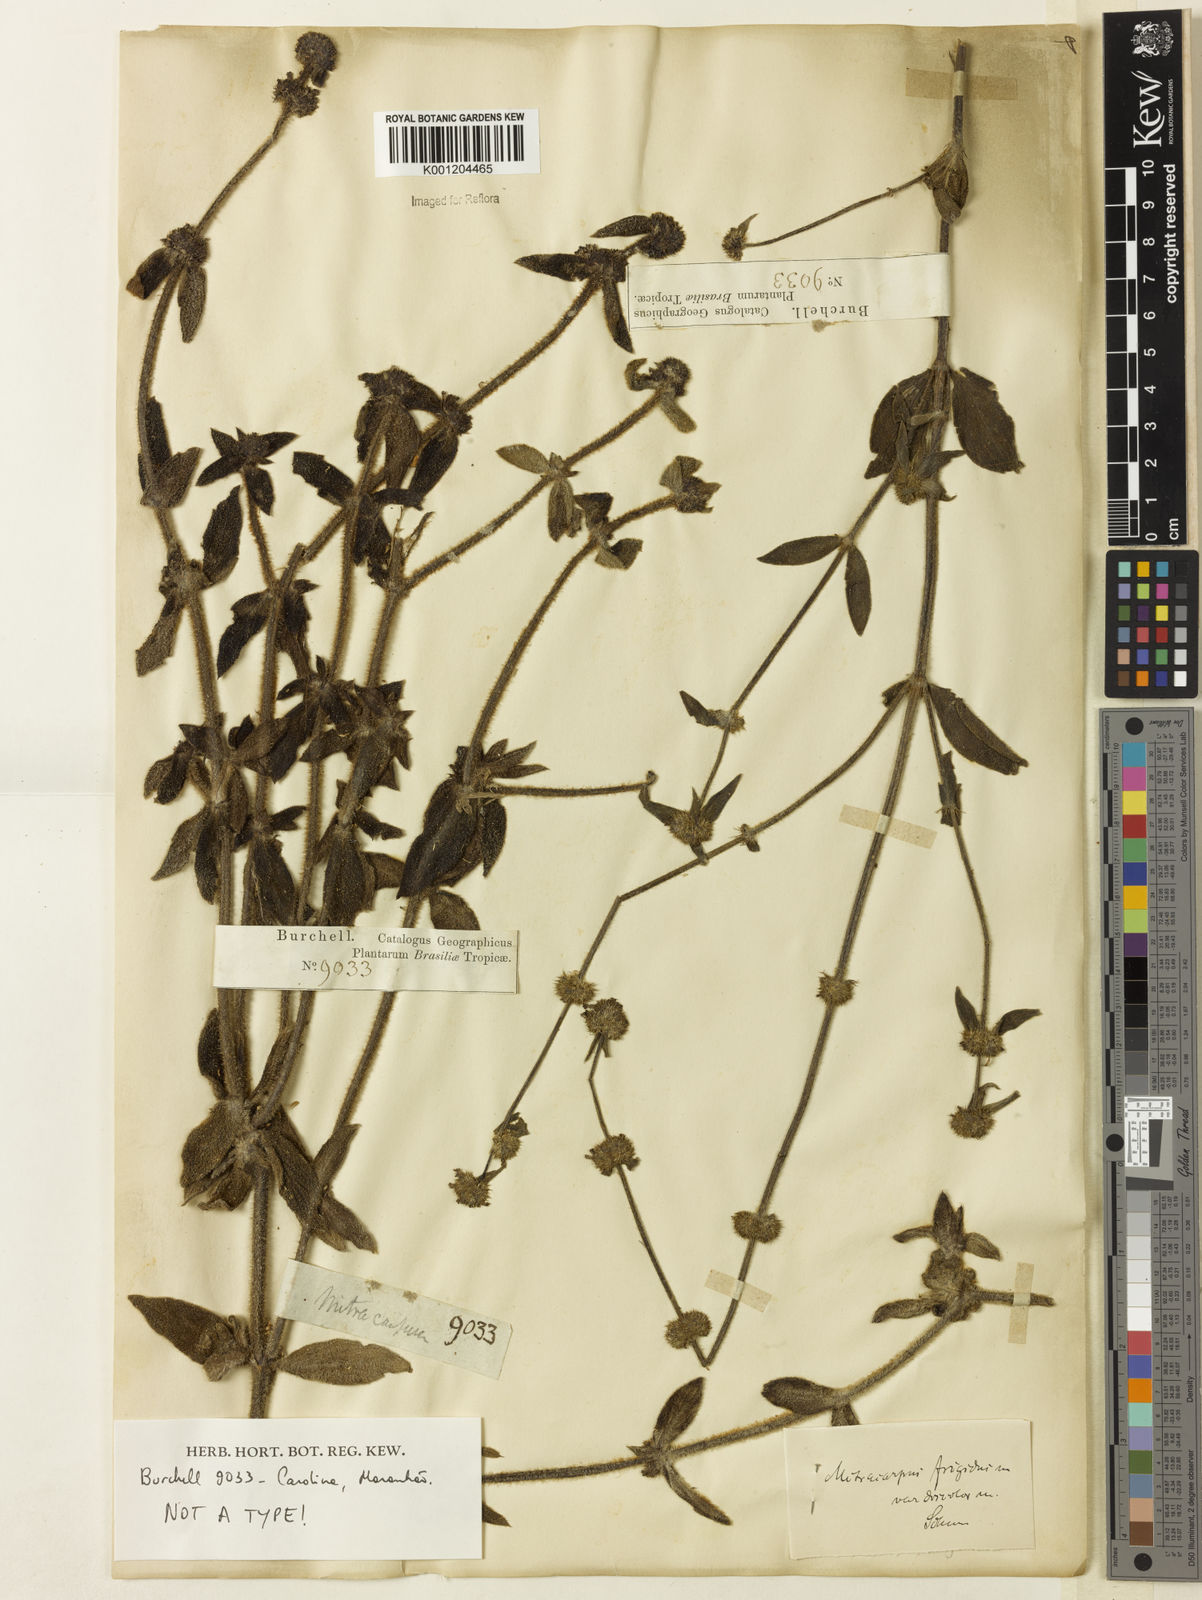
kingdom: Plantae
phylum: Tracheophyta
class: Magnoliopsida
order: Gentianales
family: Rubiaceae
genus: Mitracarpus
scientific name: Mitracarpus frigidus
